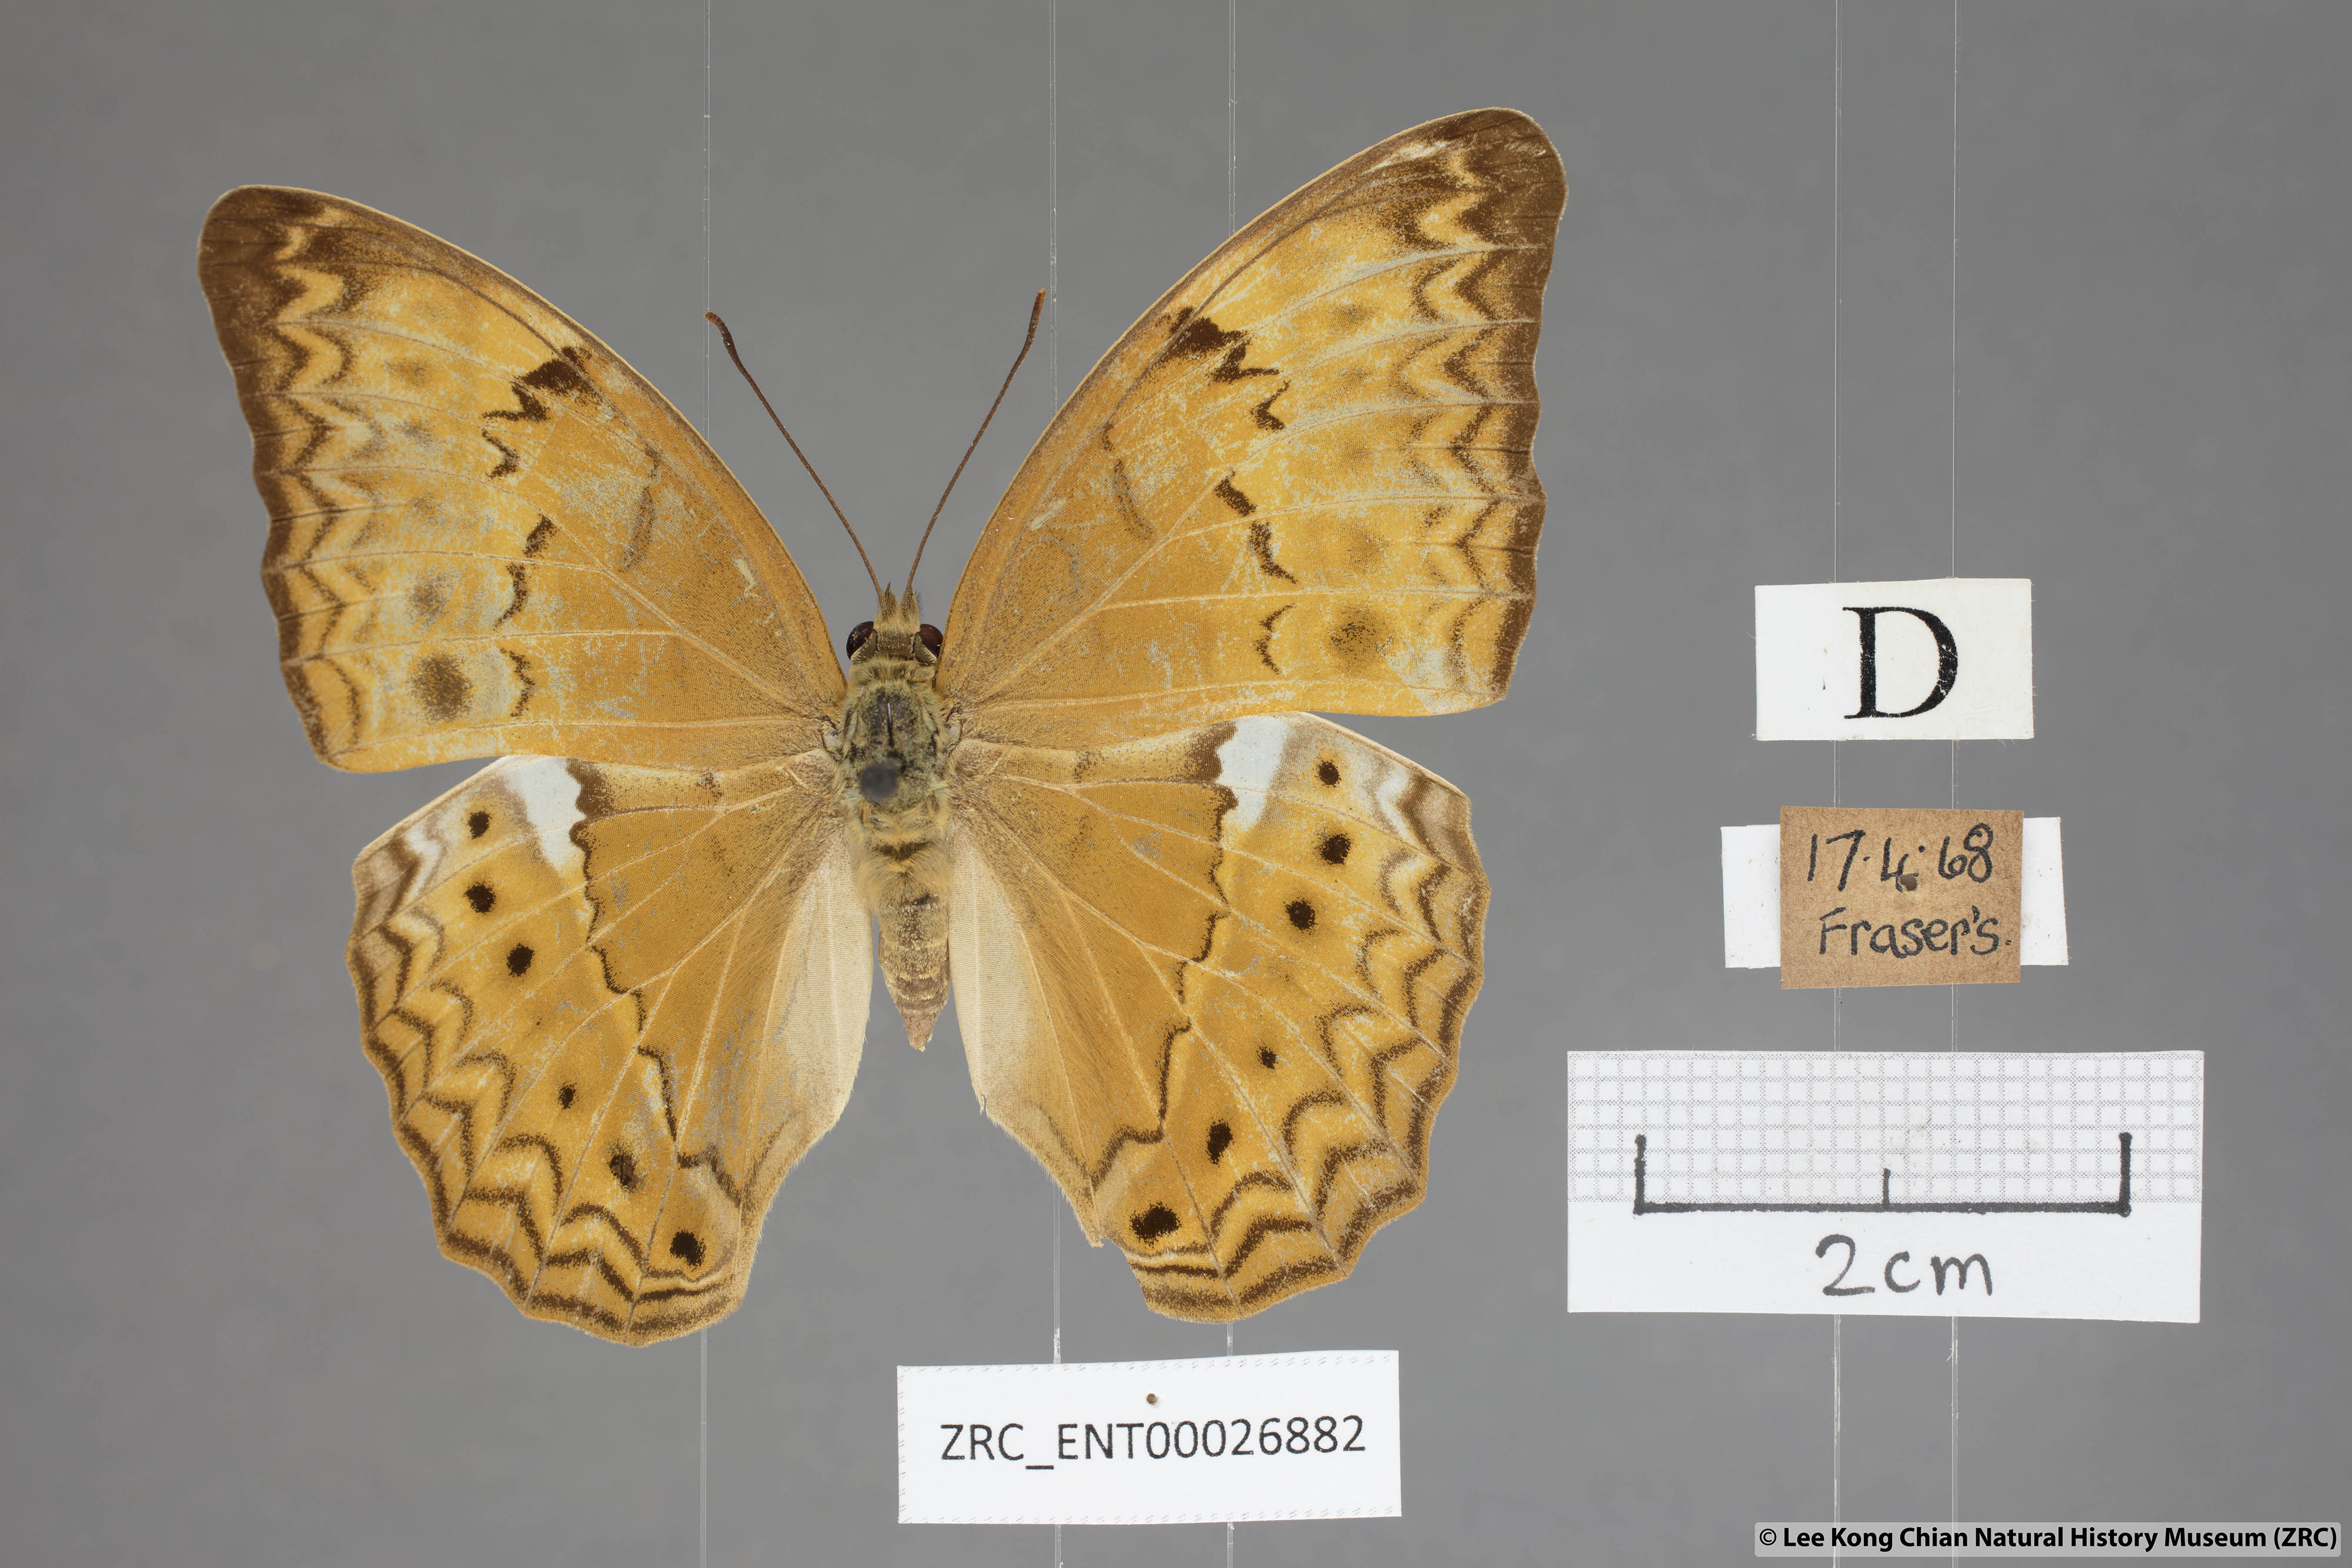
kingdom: Animalia
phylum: Arthropoda
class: Insecta
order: Lepidoptera
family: Nymphalidae
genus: Cirrochroa
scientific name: Cirrochroa tyche
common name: Common yeoman
